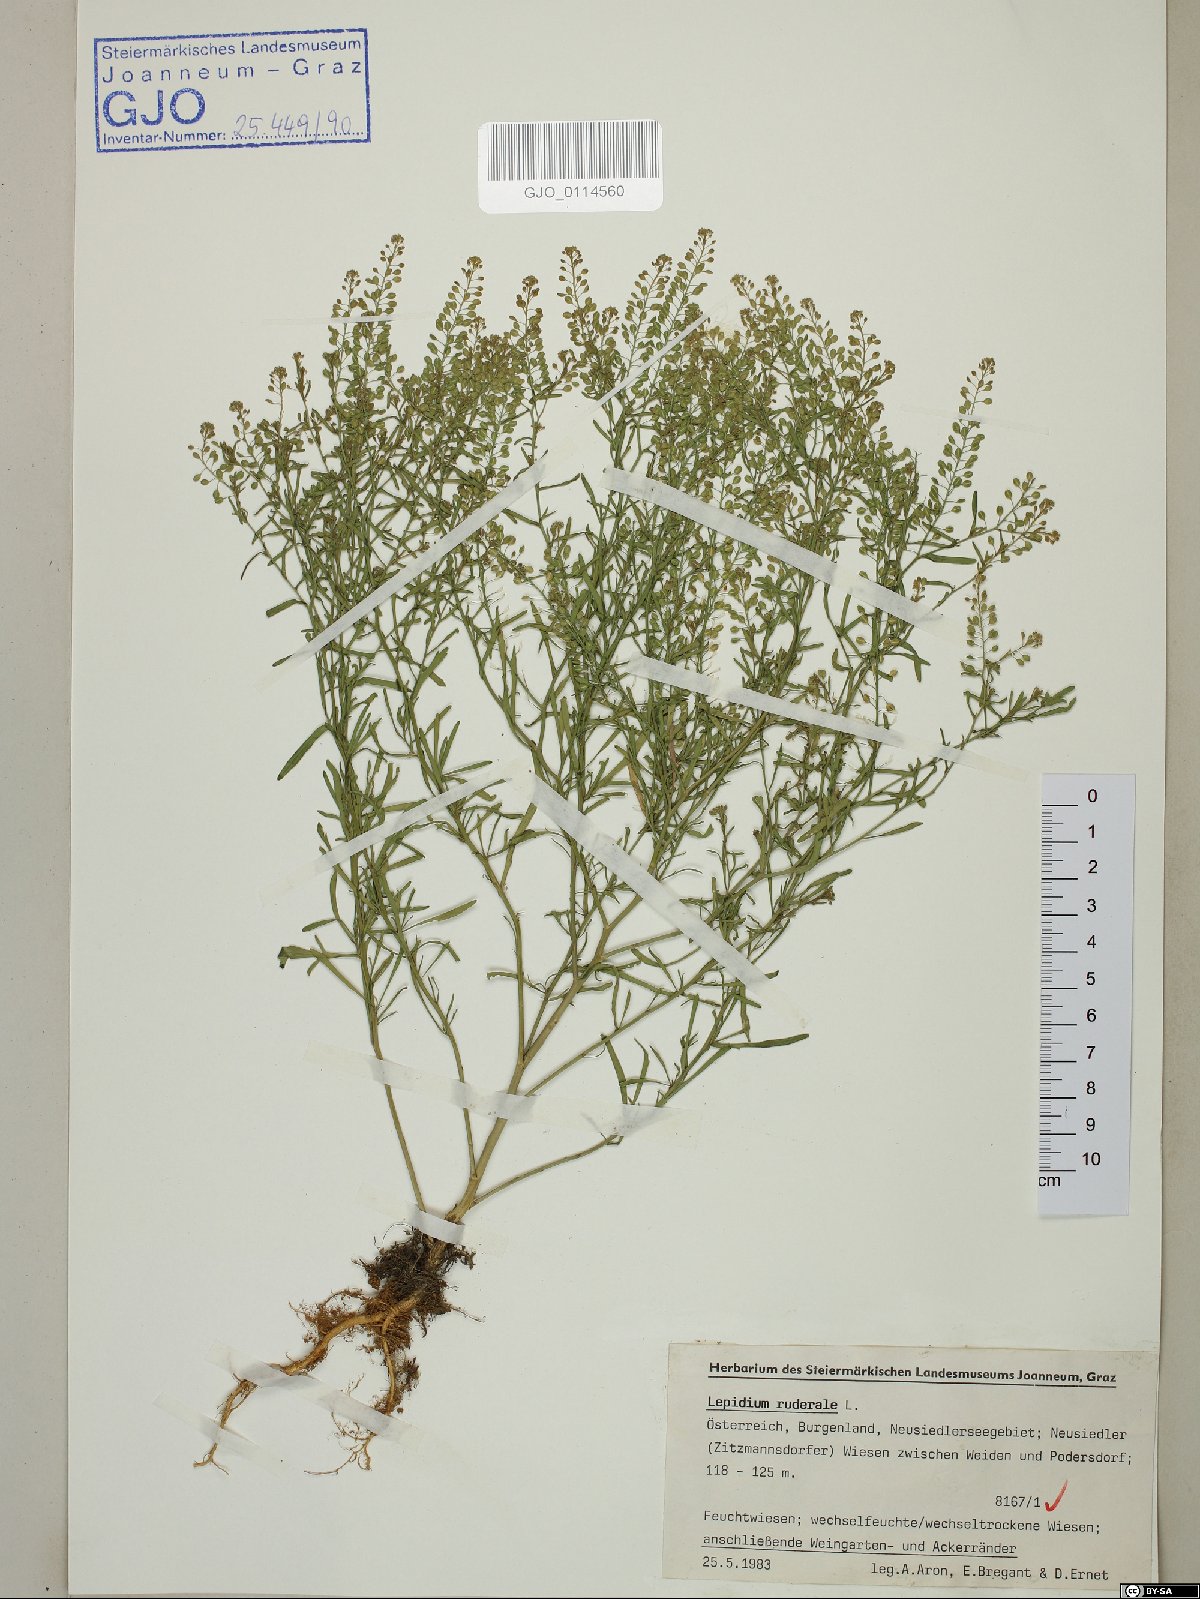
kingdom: Plantae
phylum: Tracheophyta
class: Magnoliopsida
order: Brassicales
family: Brassicaceae
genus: Lepidium
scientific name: Lepidium ruderale
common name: Narrow-leaved pepperwort
